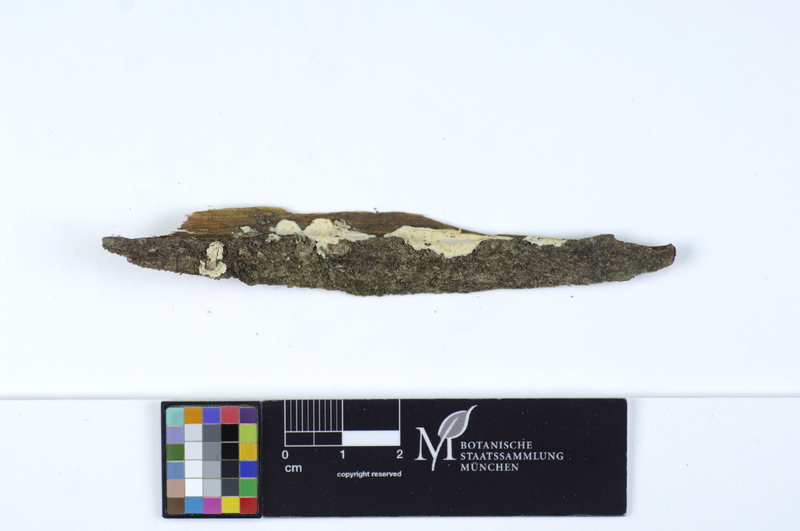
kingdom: Plantae
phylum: Tracheophyta
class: Magnoliopsida
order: Malpighiales
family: Salicaceae
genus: Salix
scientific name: Salix
